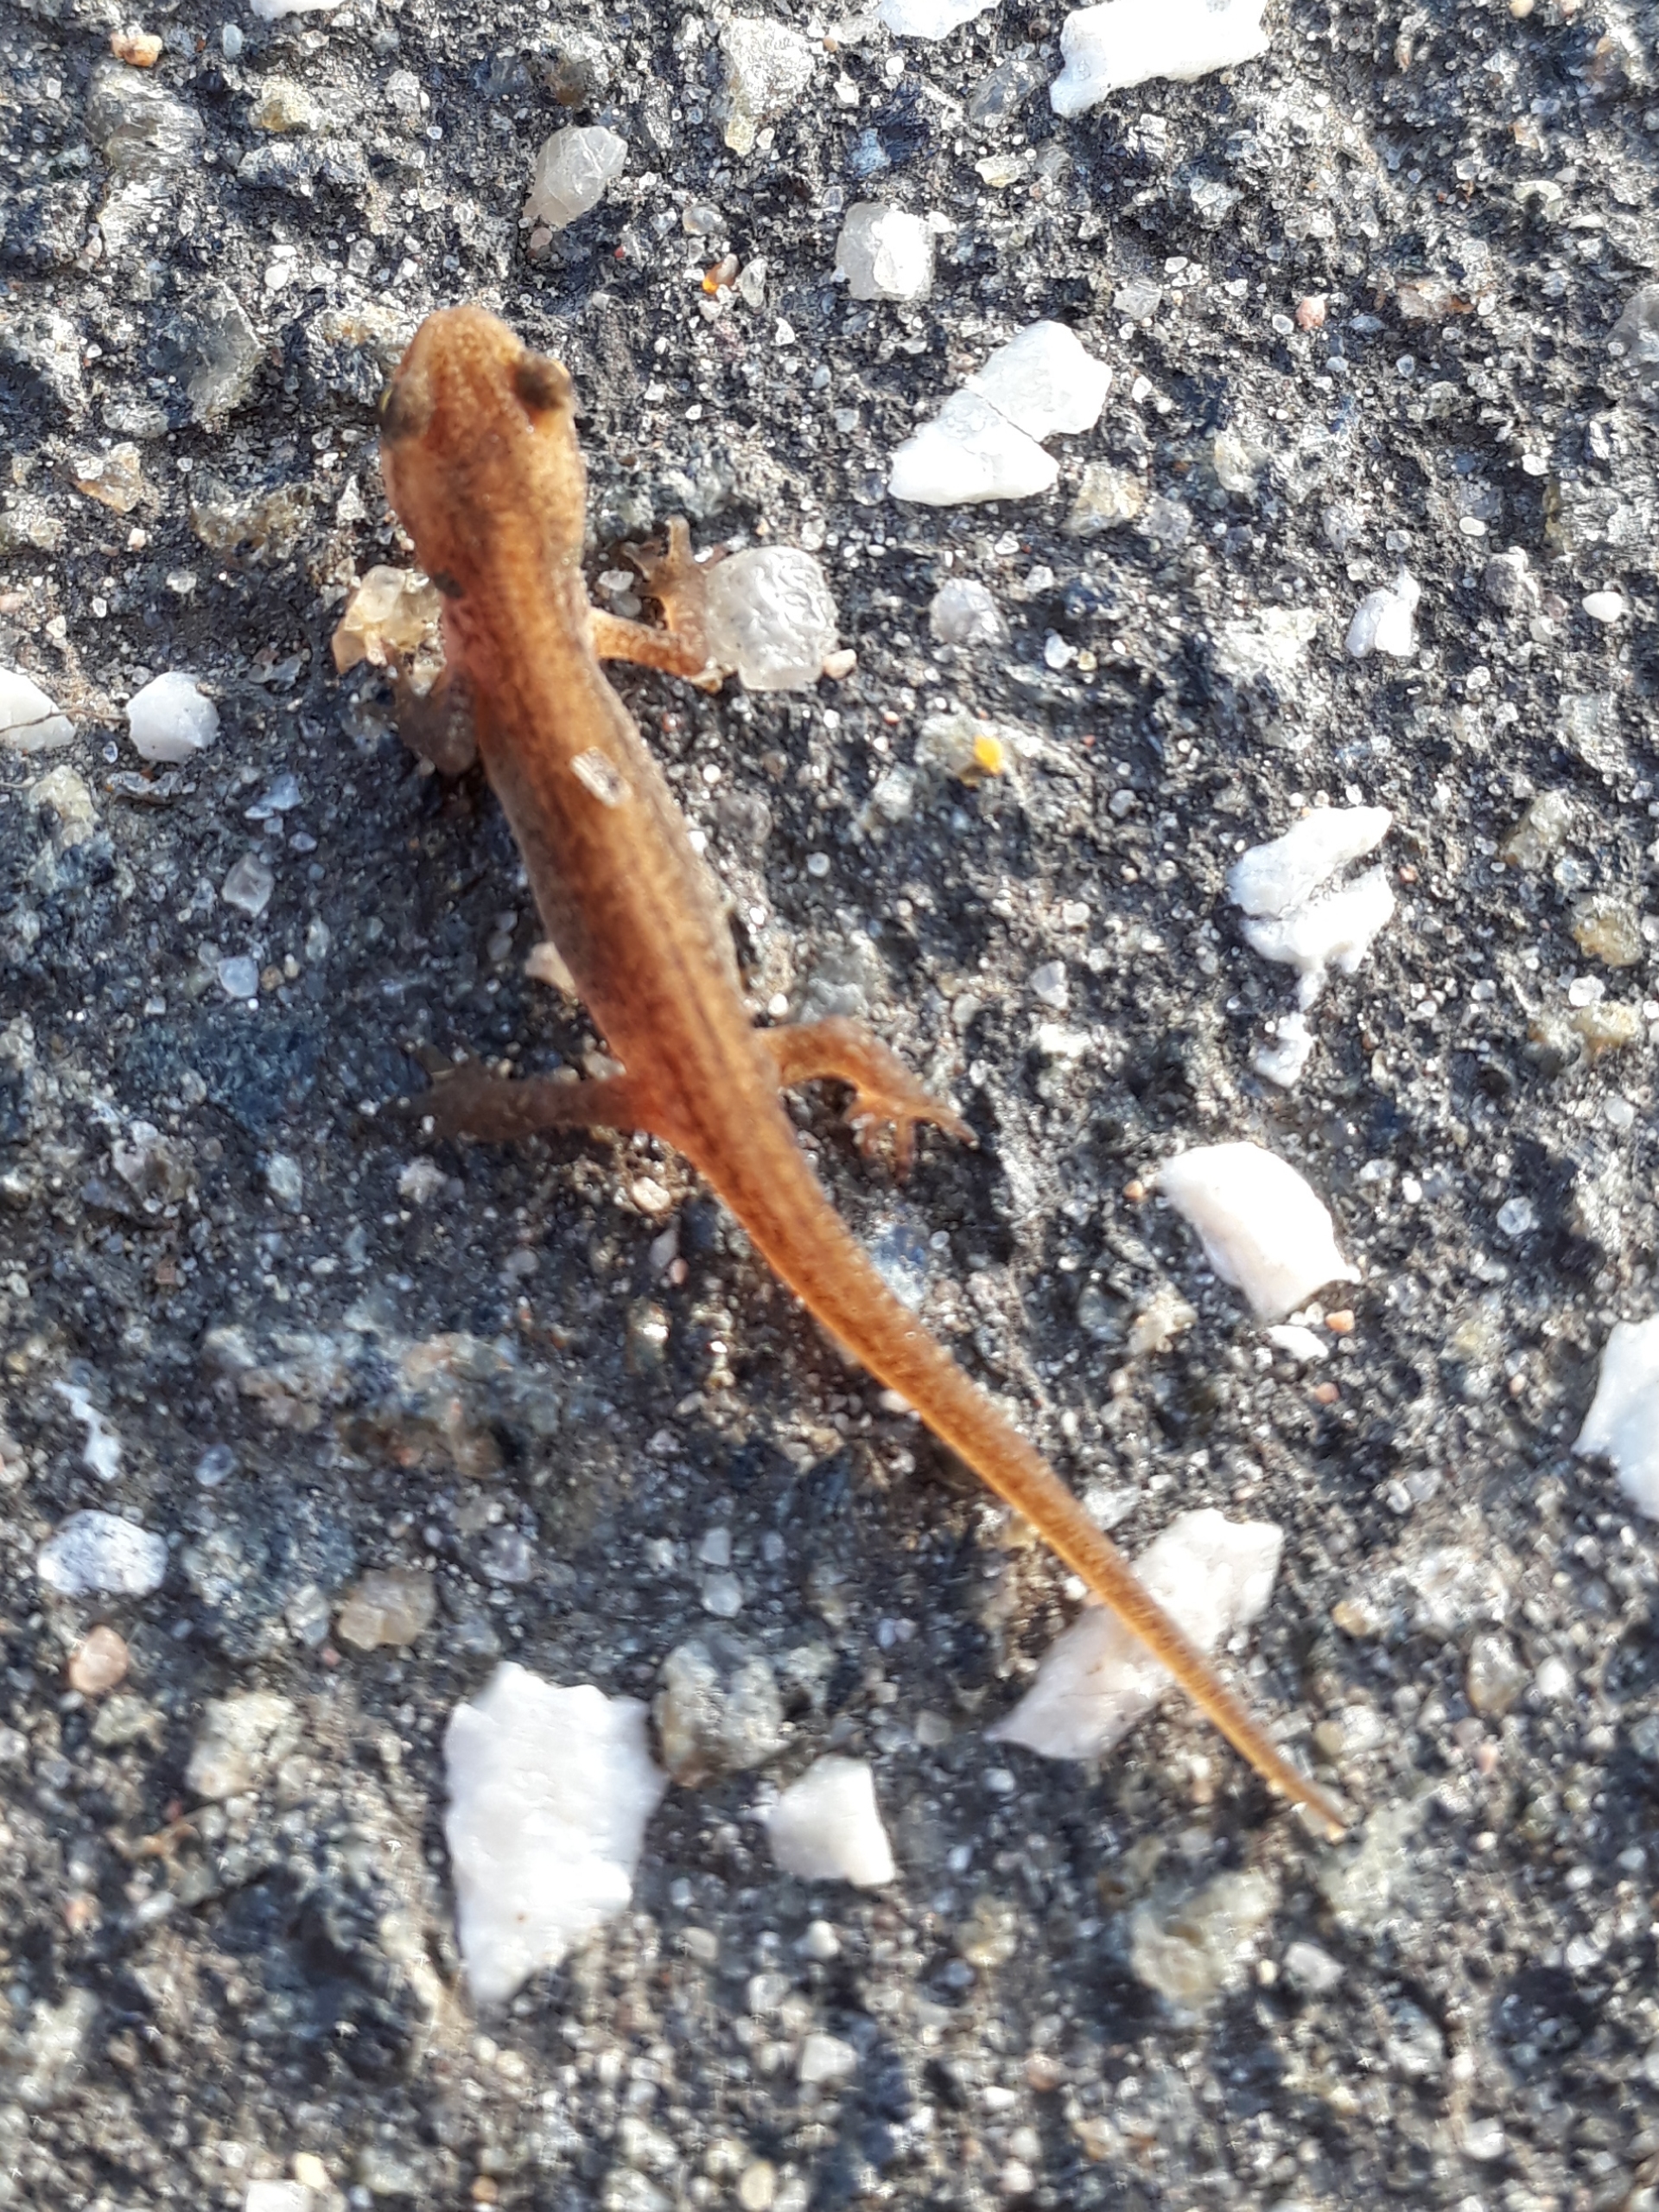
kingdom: Animalia
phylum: Chordata
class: Amphibia
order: Caudata
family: Salamandridae
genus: Lissotriton
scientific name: Lissotriton vulgaris
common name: Lille vandsalamander
